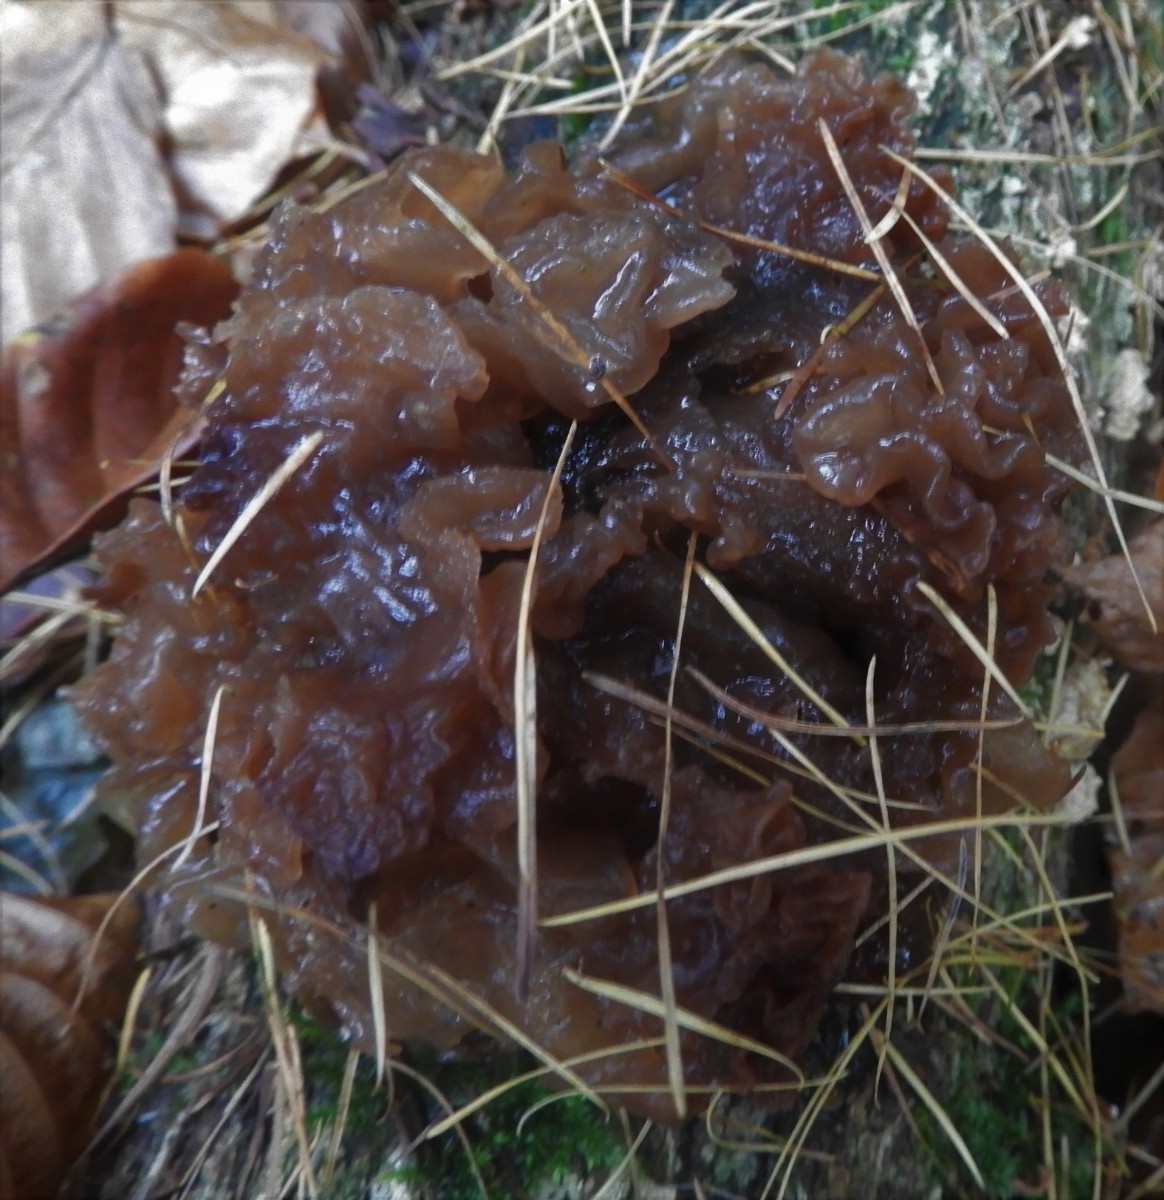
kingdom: Fungi
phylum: Basidiomycota
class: Tremellomycetes
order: Tremellales
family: Tremellaceae
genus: Phaeotremella
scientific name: Phaeotremella frondosa
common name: kæmpe-bævresvamp
